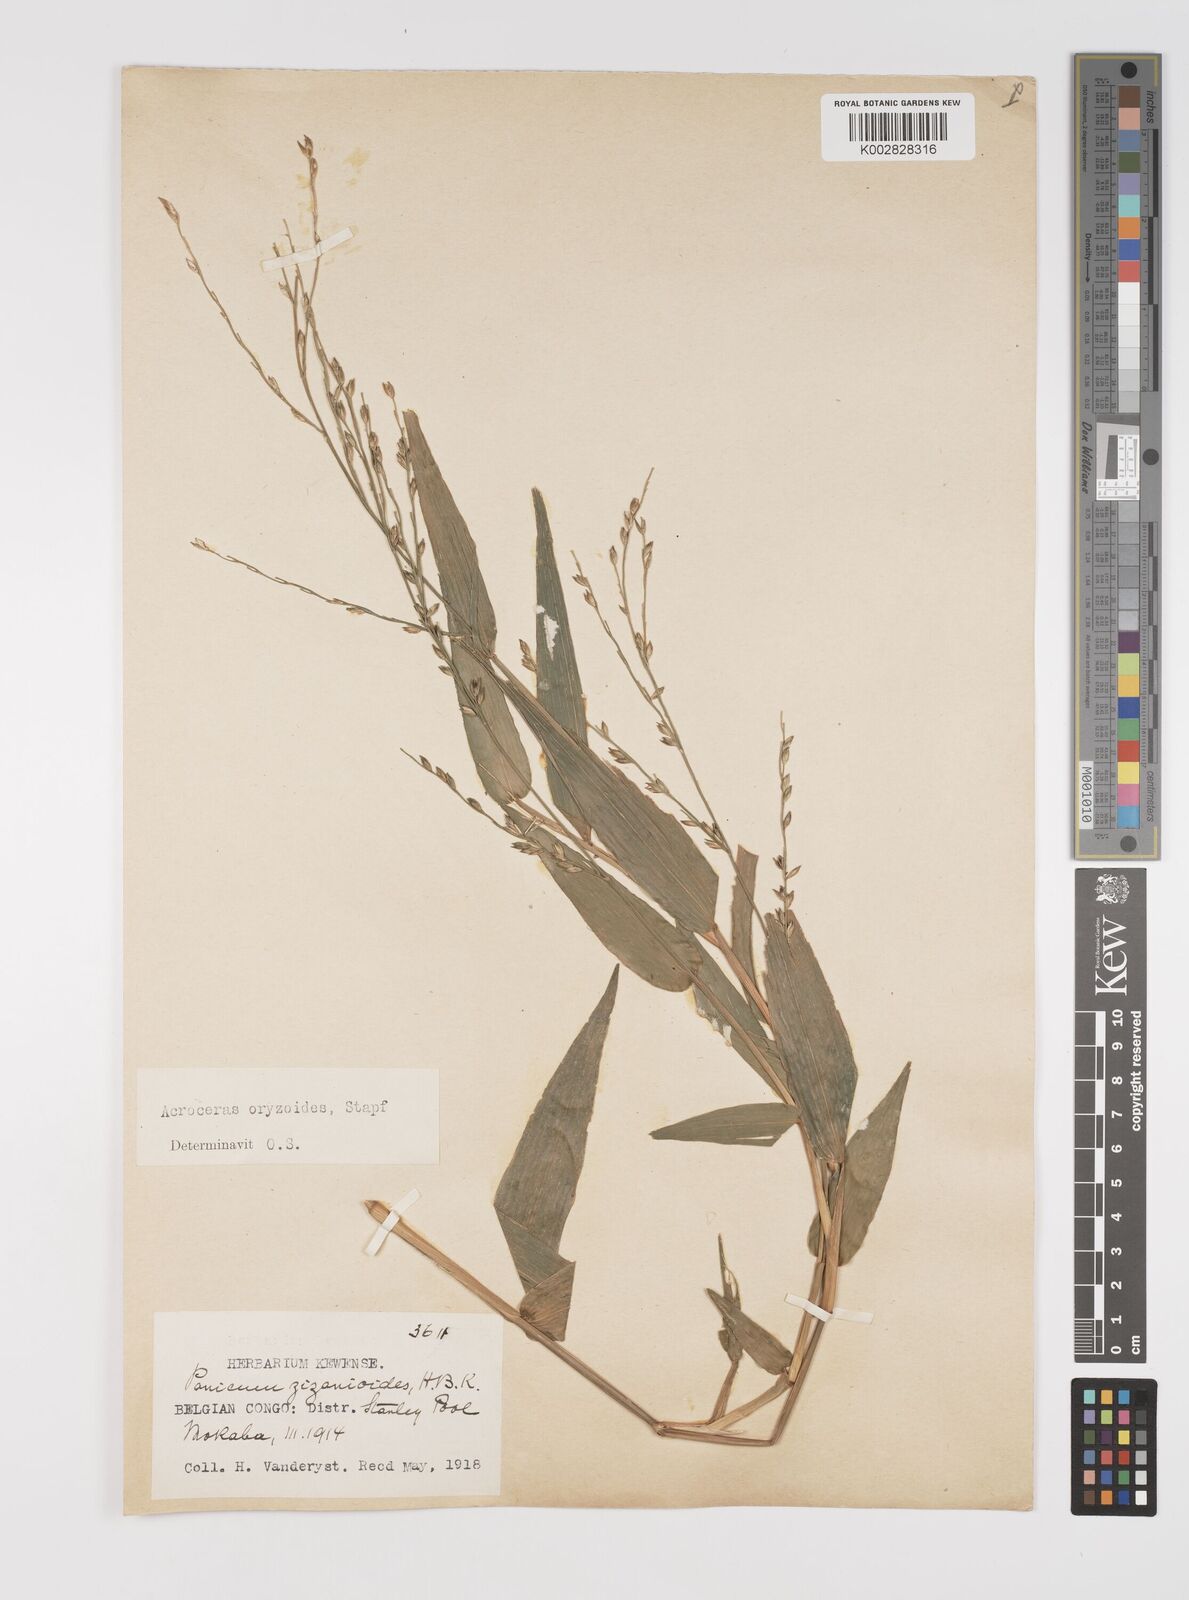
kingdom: Plantae
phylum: Tracheophyta
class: Liliopsida
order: Poales
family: Poaceae
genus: Acroceras
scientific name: Acroceras zizanioides
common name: Oat grass
